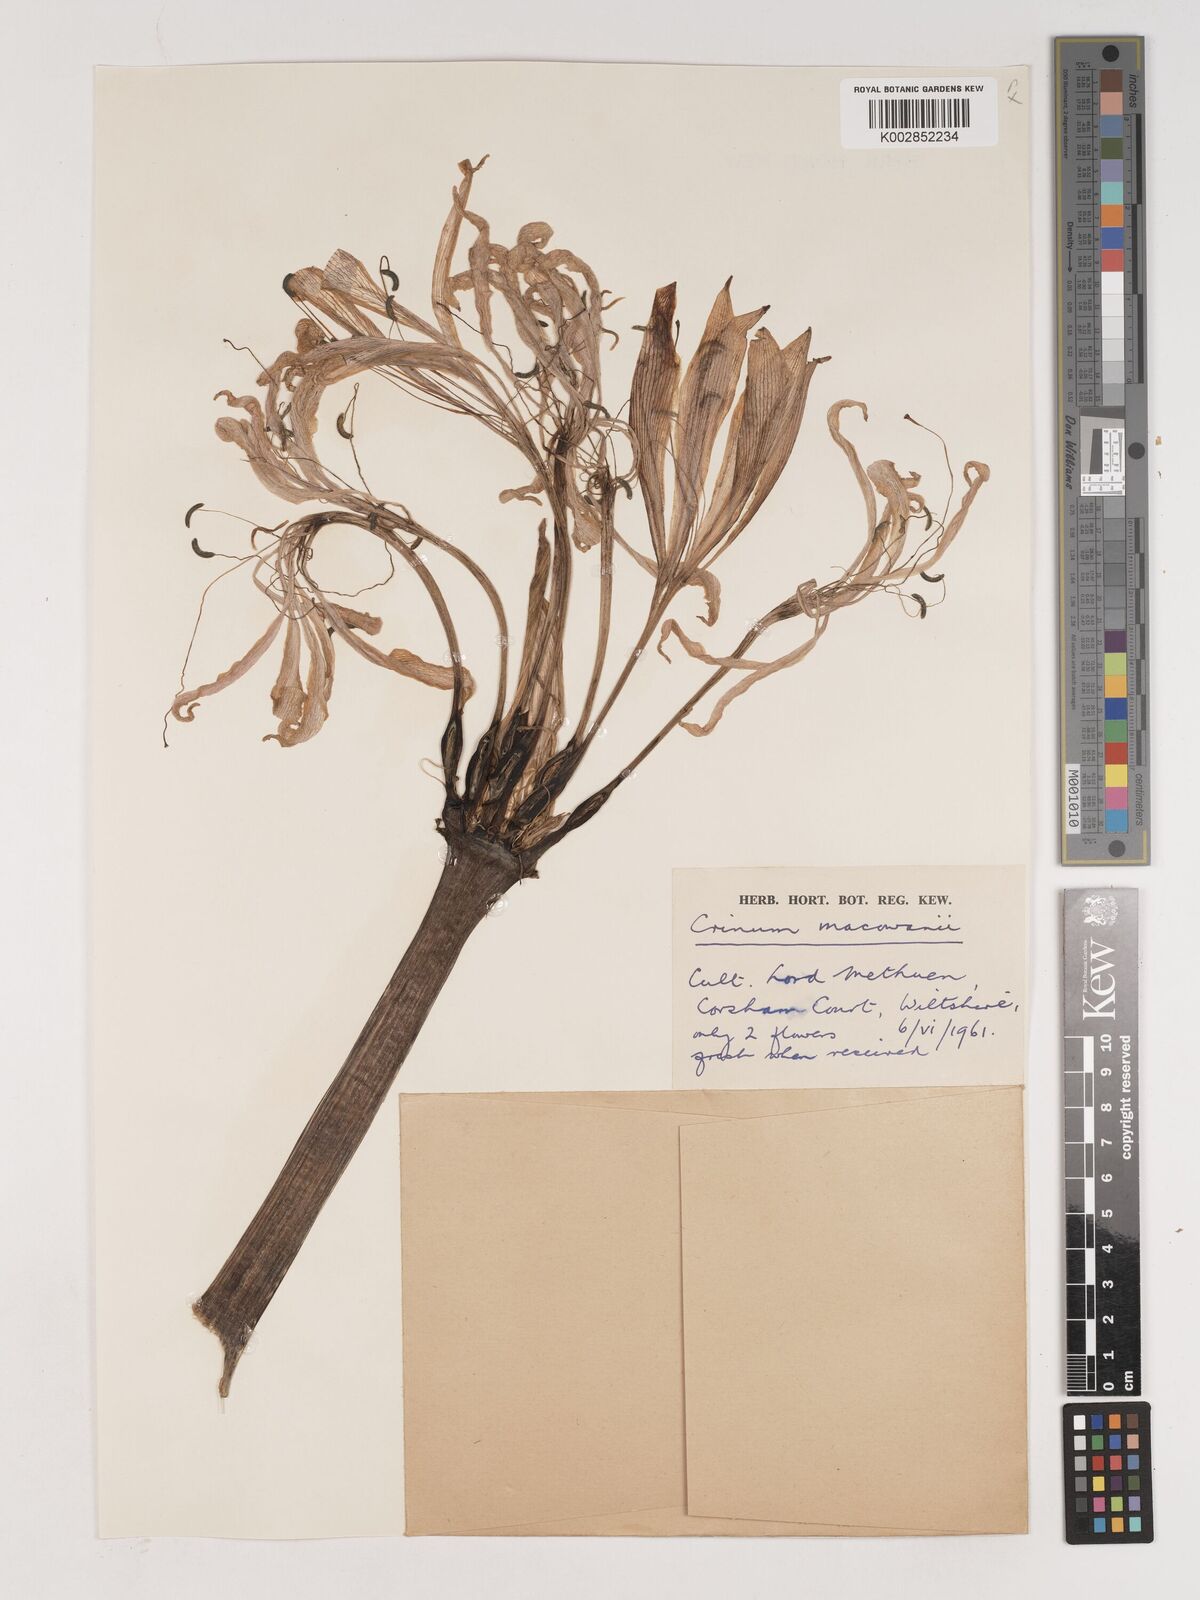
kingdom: Plantae
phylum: Tracheophyta
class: Liliopsida
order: Asparagales
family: Amaryllidaceae
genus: Crinum
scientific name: Crinum macowanii
